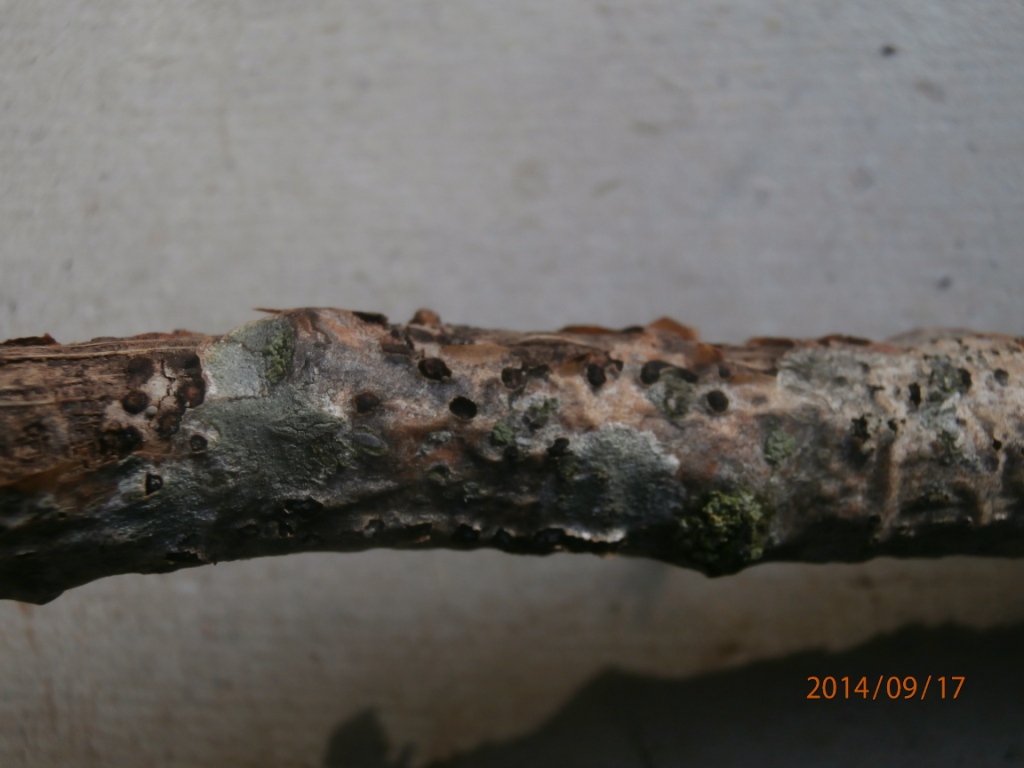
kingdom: Fungi
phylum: Ascomycota
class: Sordariomycetes
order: Xylariales
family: Diatrypaceae
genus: Diatrype
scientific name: Diatrype bullata
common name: pile-kulskorpe
